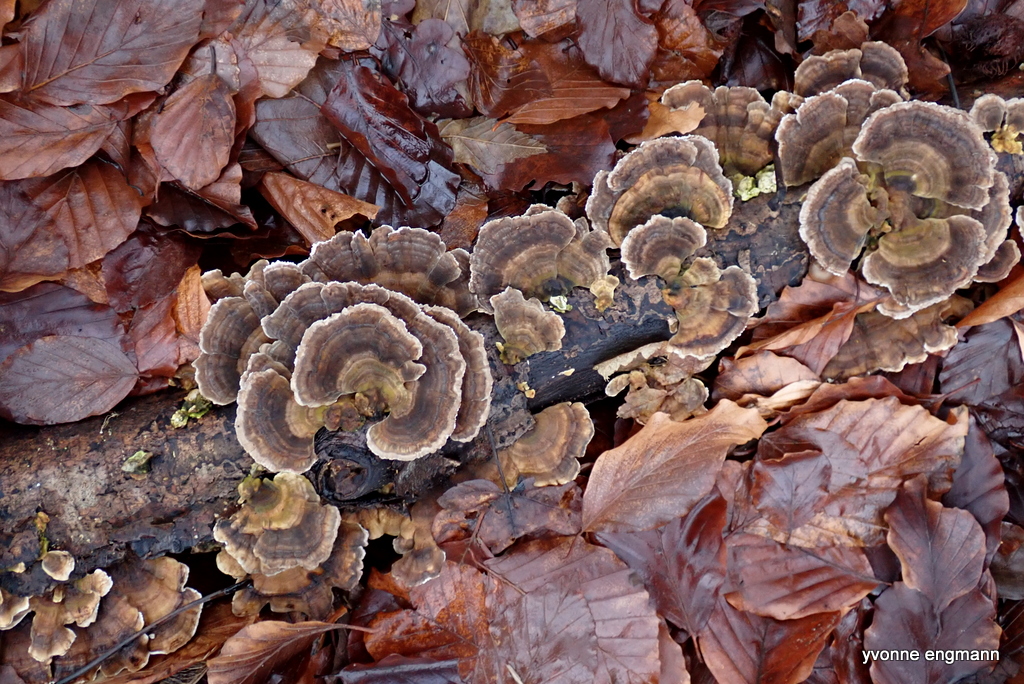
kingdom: Fungi
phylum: Basidiomycota
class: Agaricomycetes
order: Polyporales
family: Polyporaceae
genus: Trametes
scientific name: Trametes versicolor
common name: broget læderporesvamp
